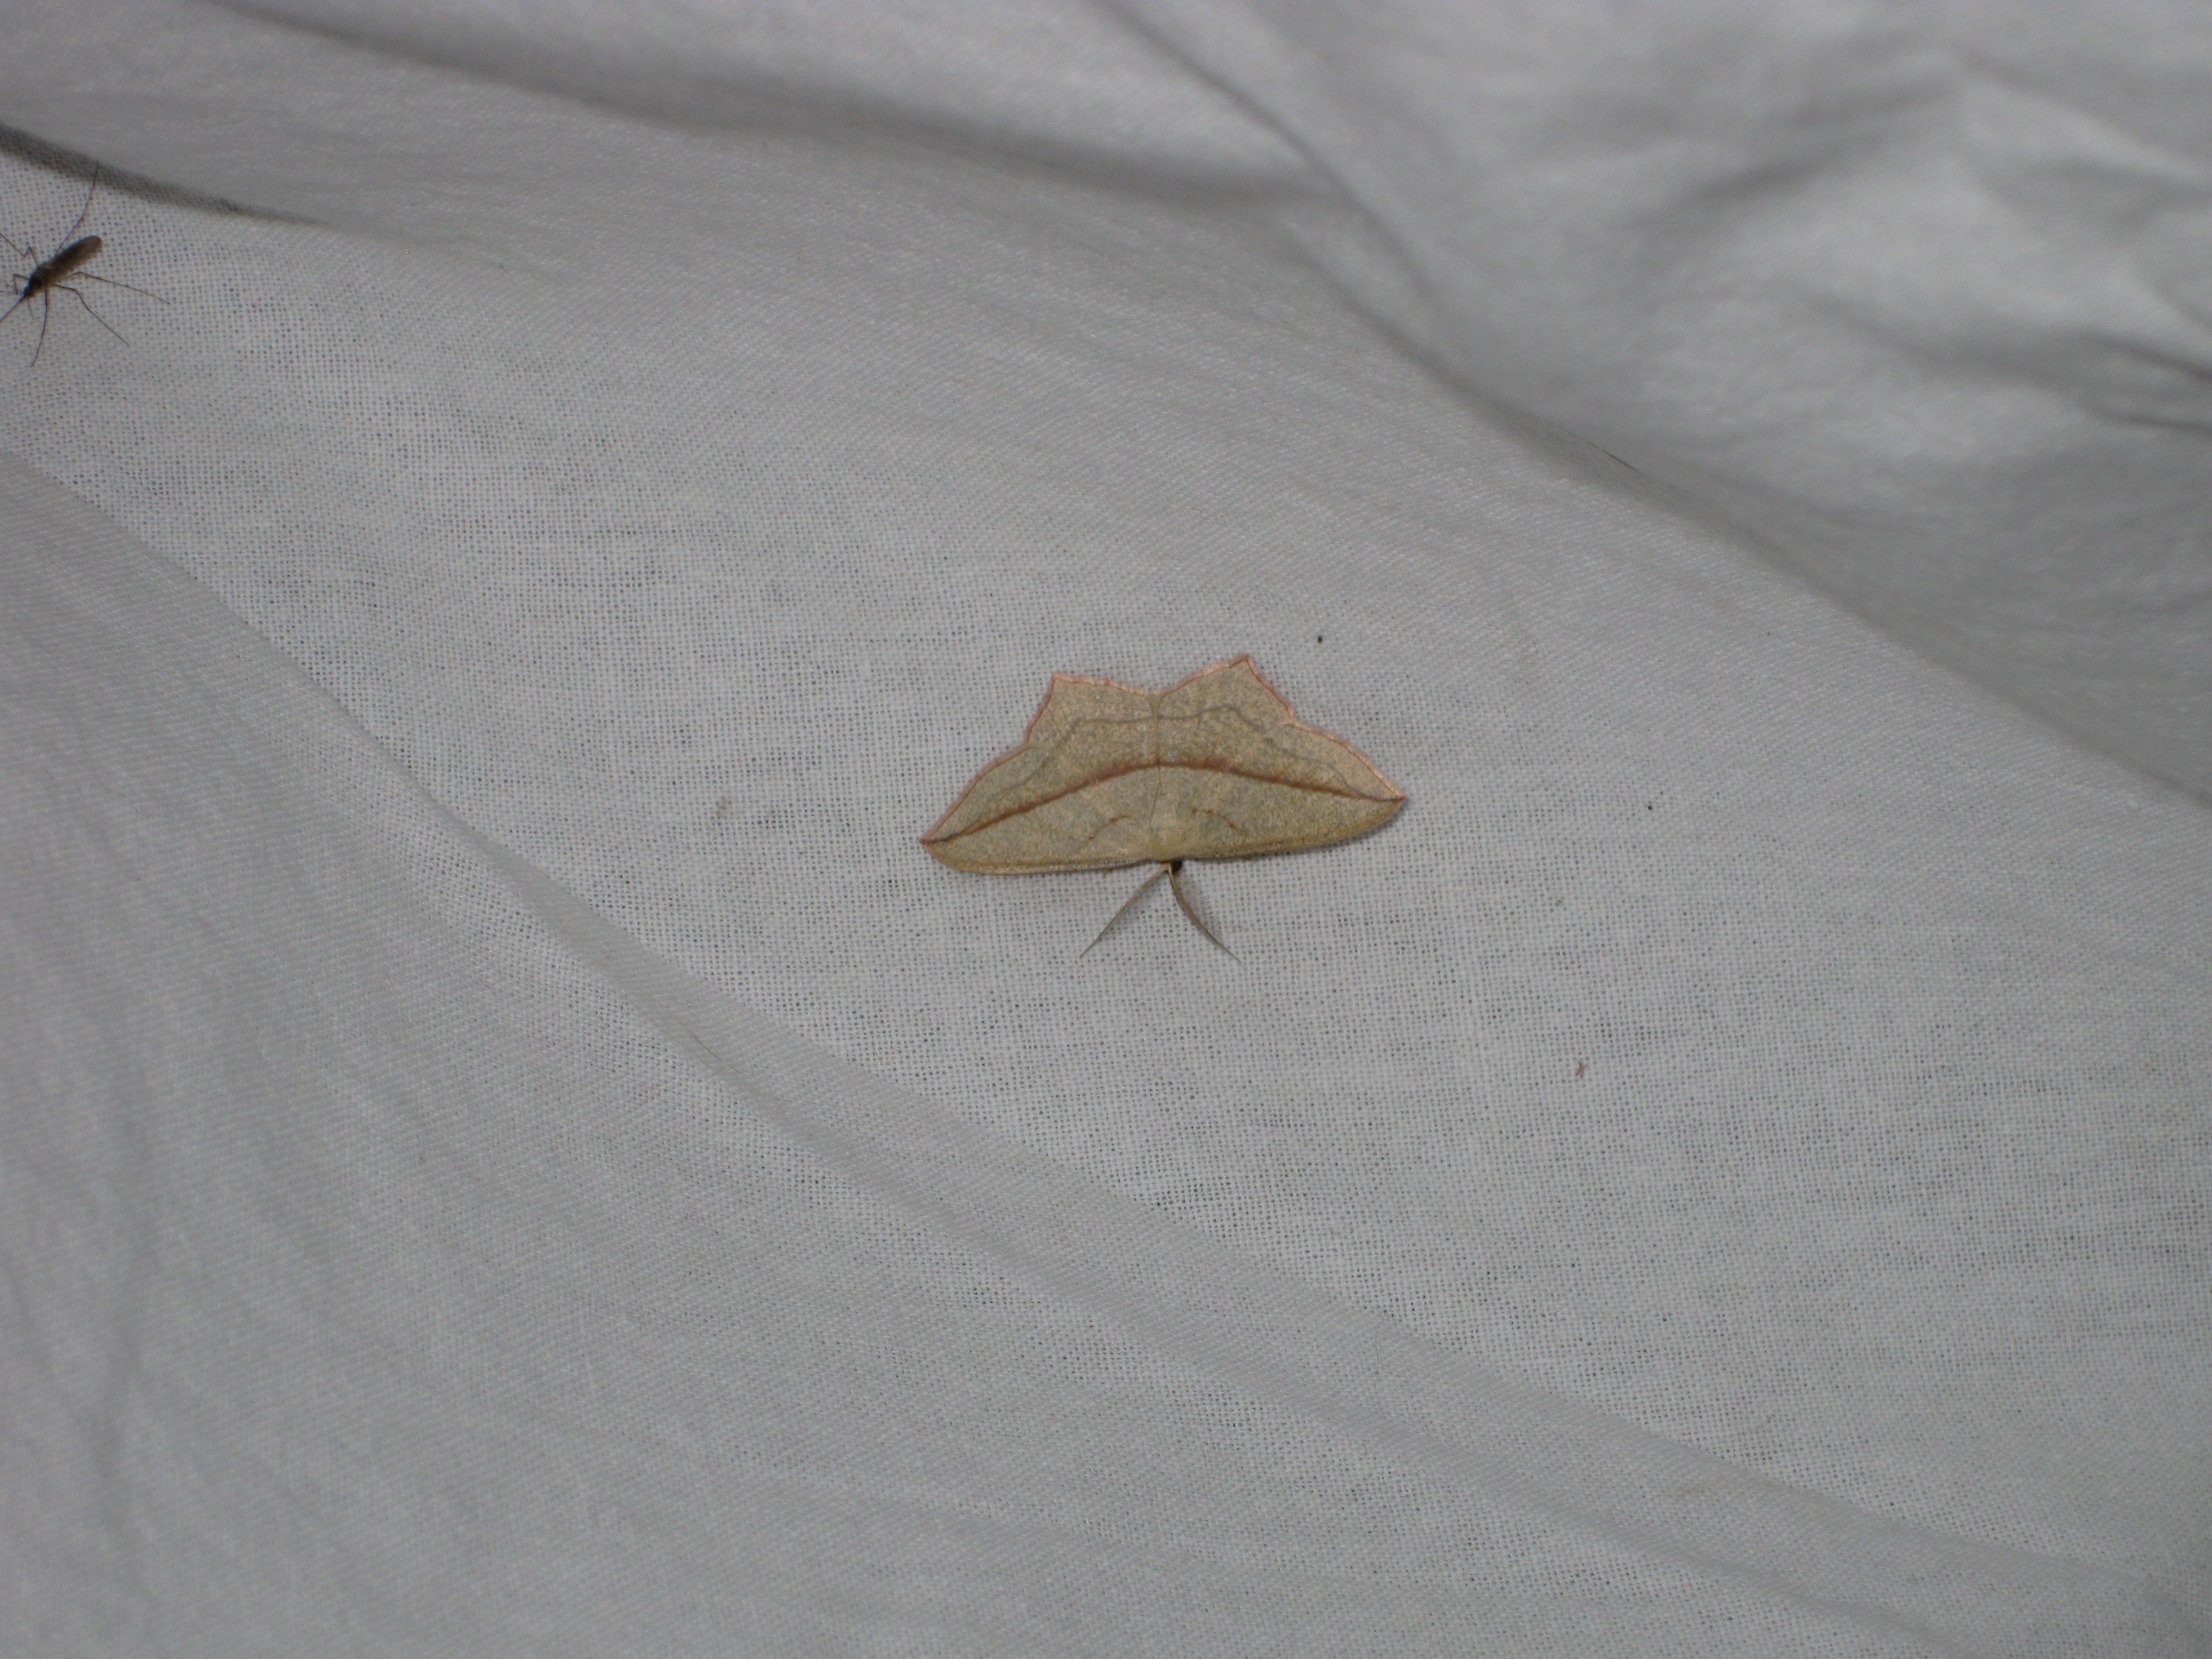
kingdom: Animalia
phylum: Arthropoda
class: Insecta
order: Lepidoptera
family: Geometridae
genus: Timandra
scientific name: Timandra comae
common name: Blood-vein
